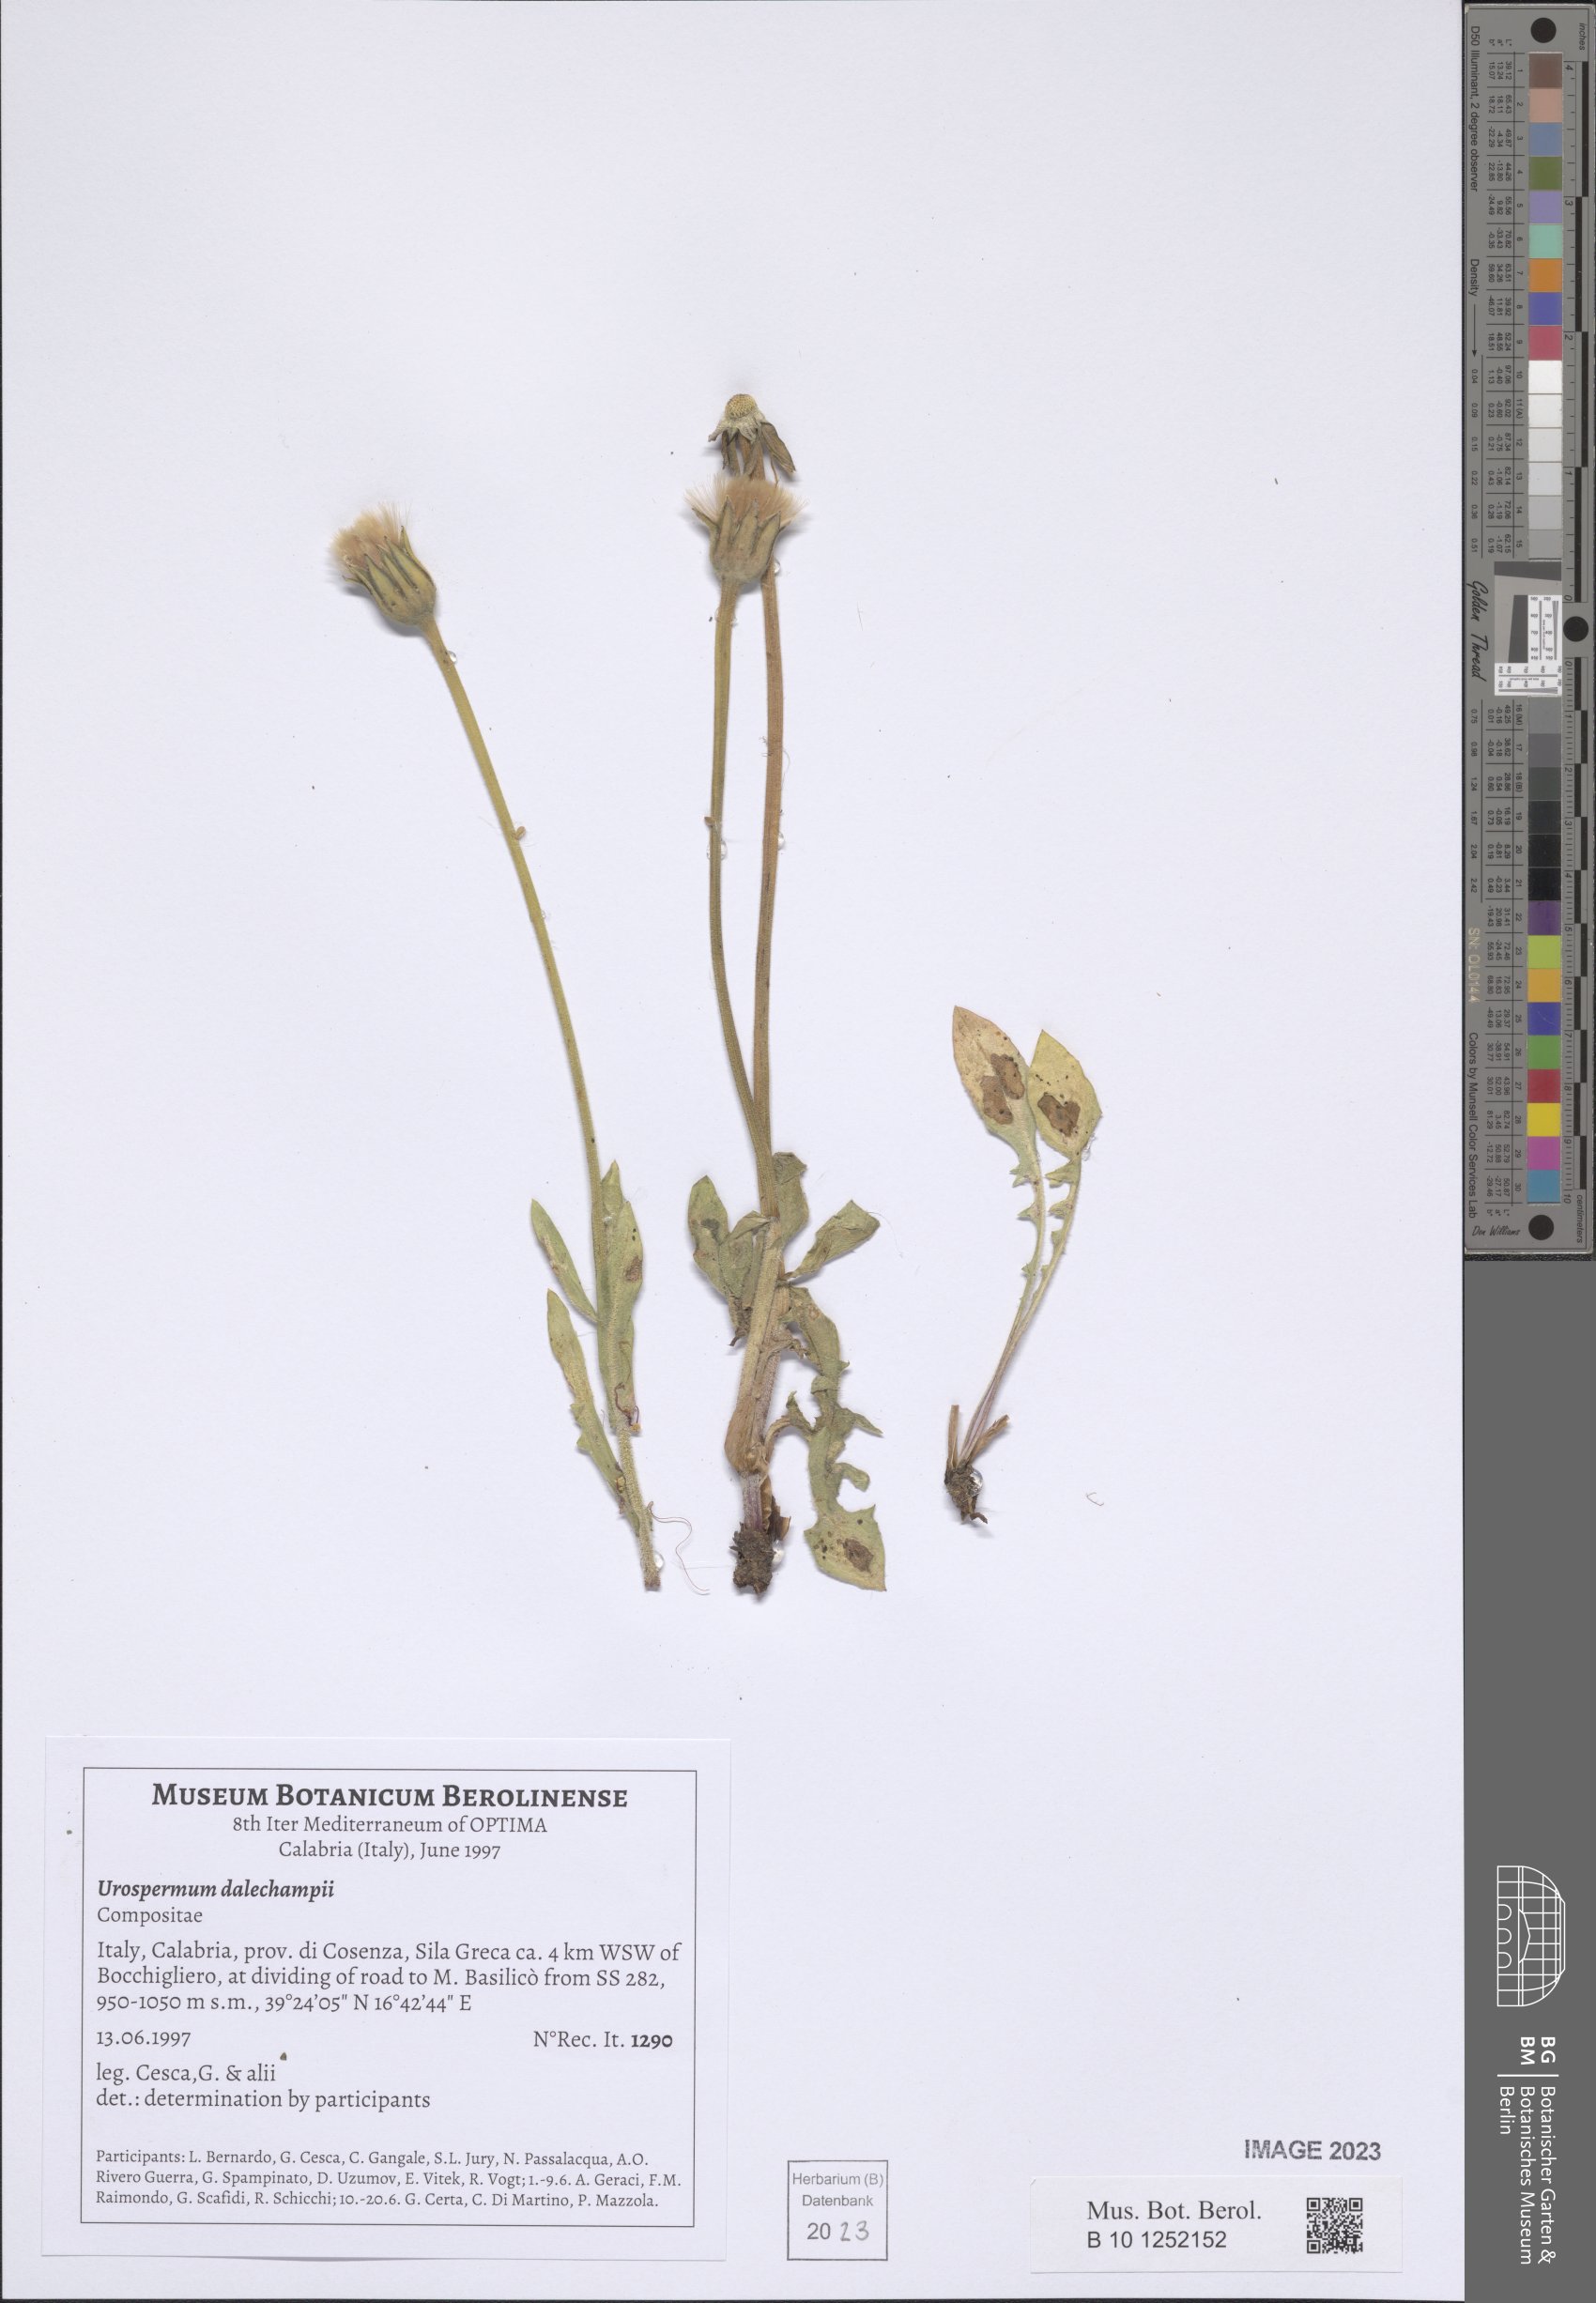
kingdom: Plantae
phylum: Tracheophyta
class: Magnoliopsida
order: Asterales
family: Asteraceae
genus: Urospermum
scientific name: Urospermum dalechampii
